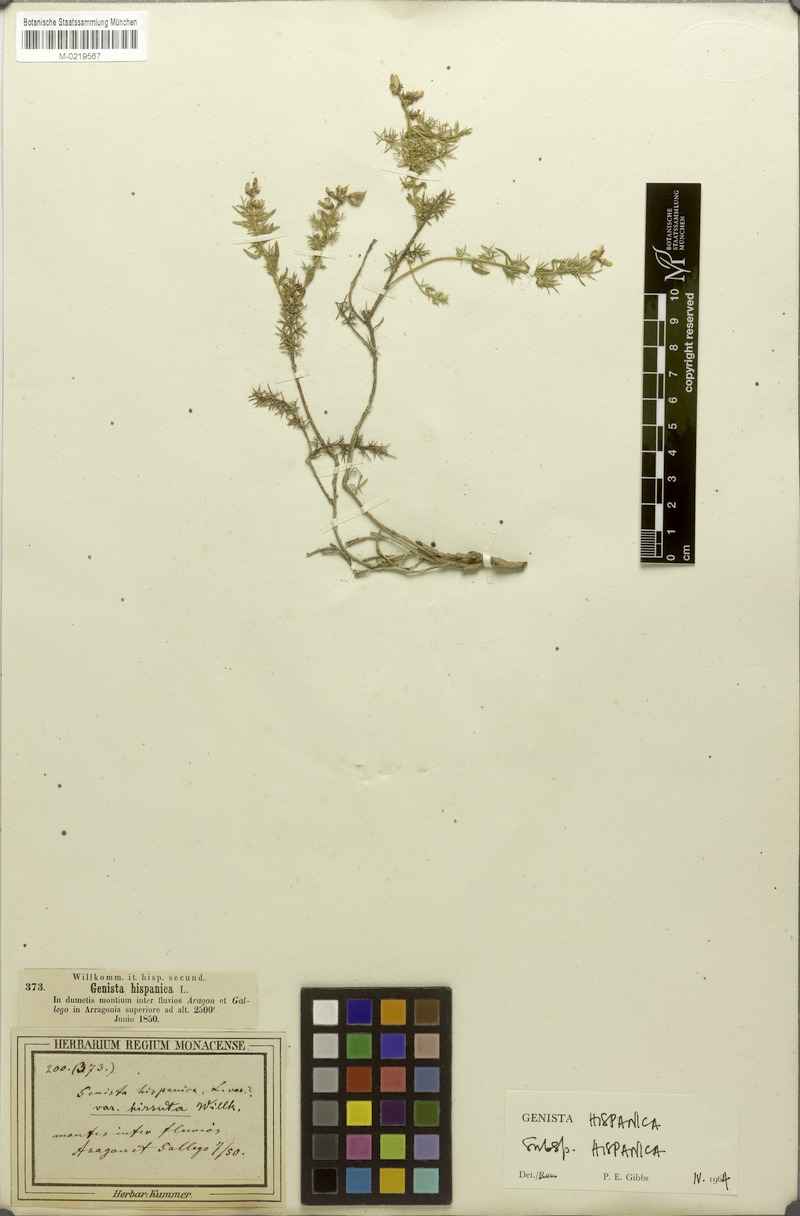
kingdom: Plantae
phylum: Tracheophyta
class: Magnoliopsida
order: Fabales
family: Fabaceae
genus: Genista
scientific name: Genista hispanica
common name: Spanish gorse
